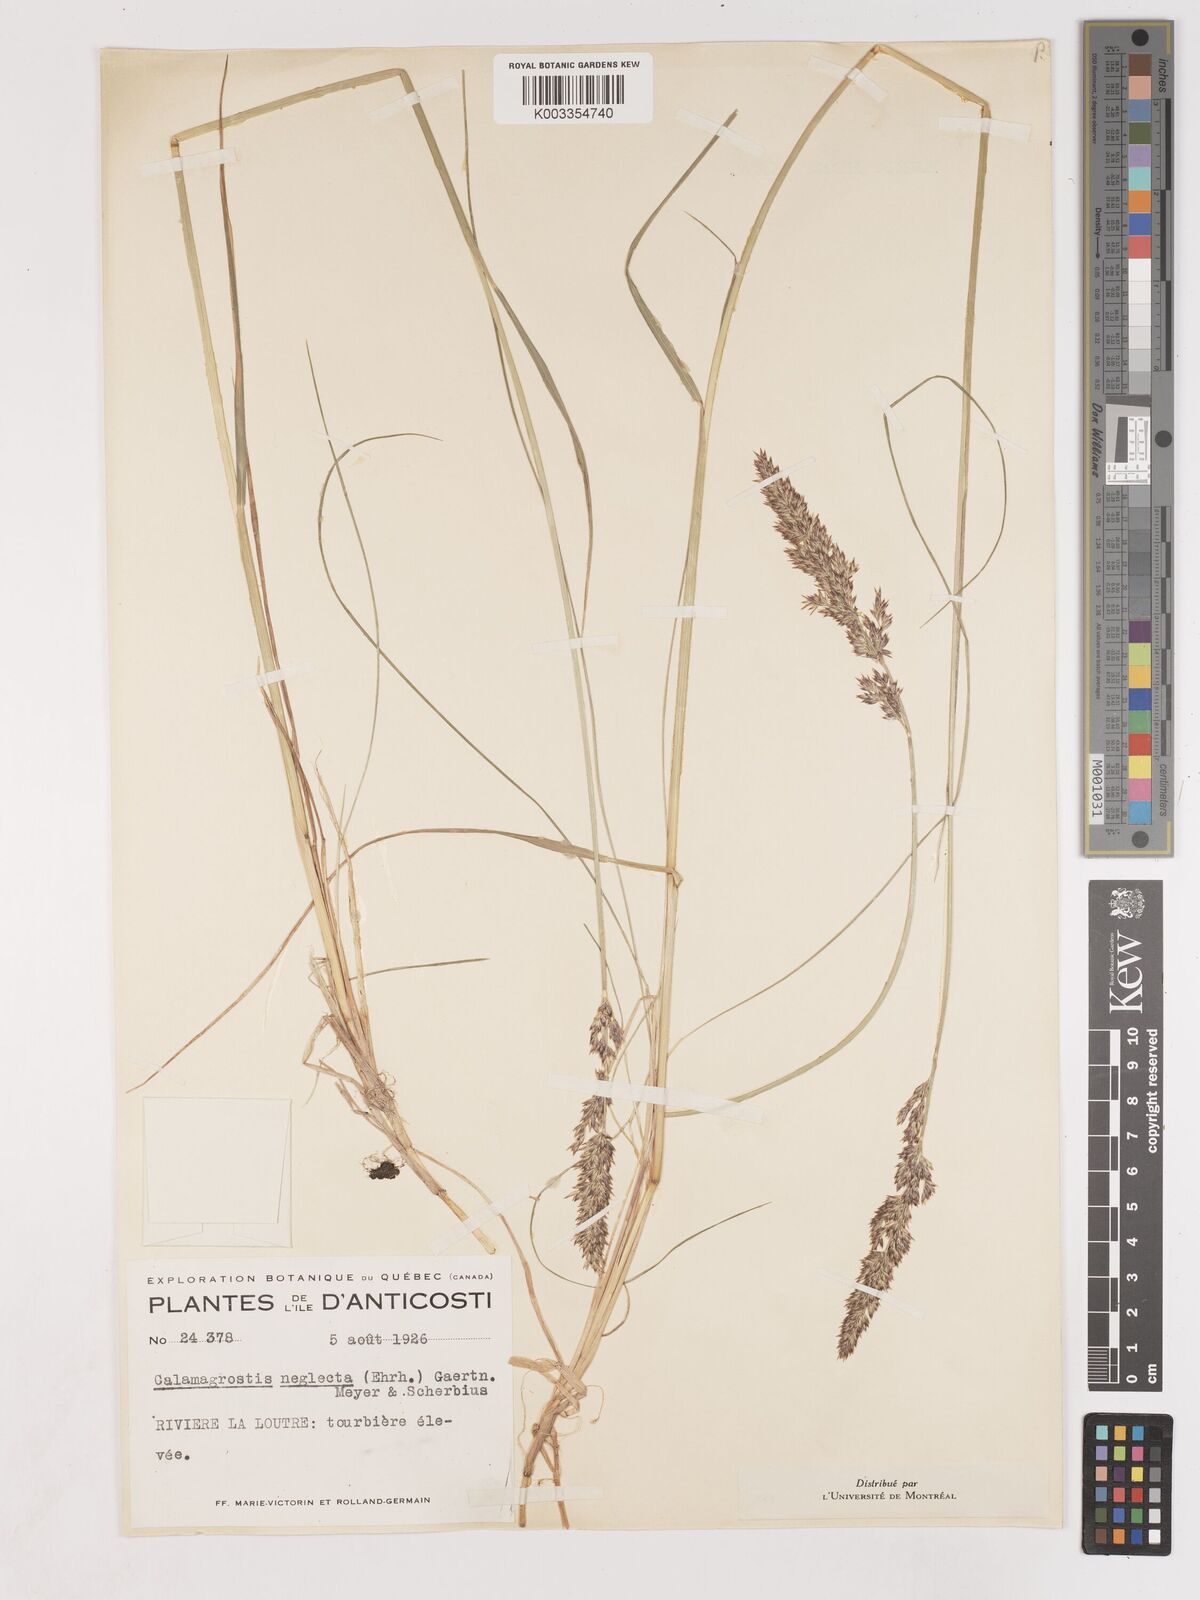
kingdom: Plantae
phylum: Tracheophyta
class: Liliopsida
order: Poales
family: Poaceae
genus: Cinnagrostis
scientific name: Cinnagrostis recta
